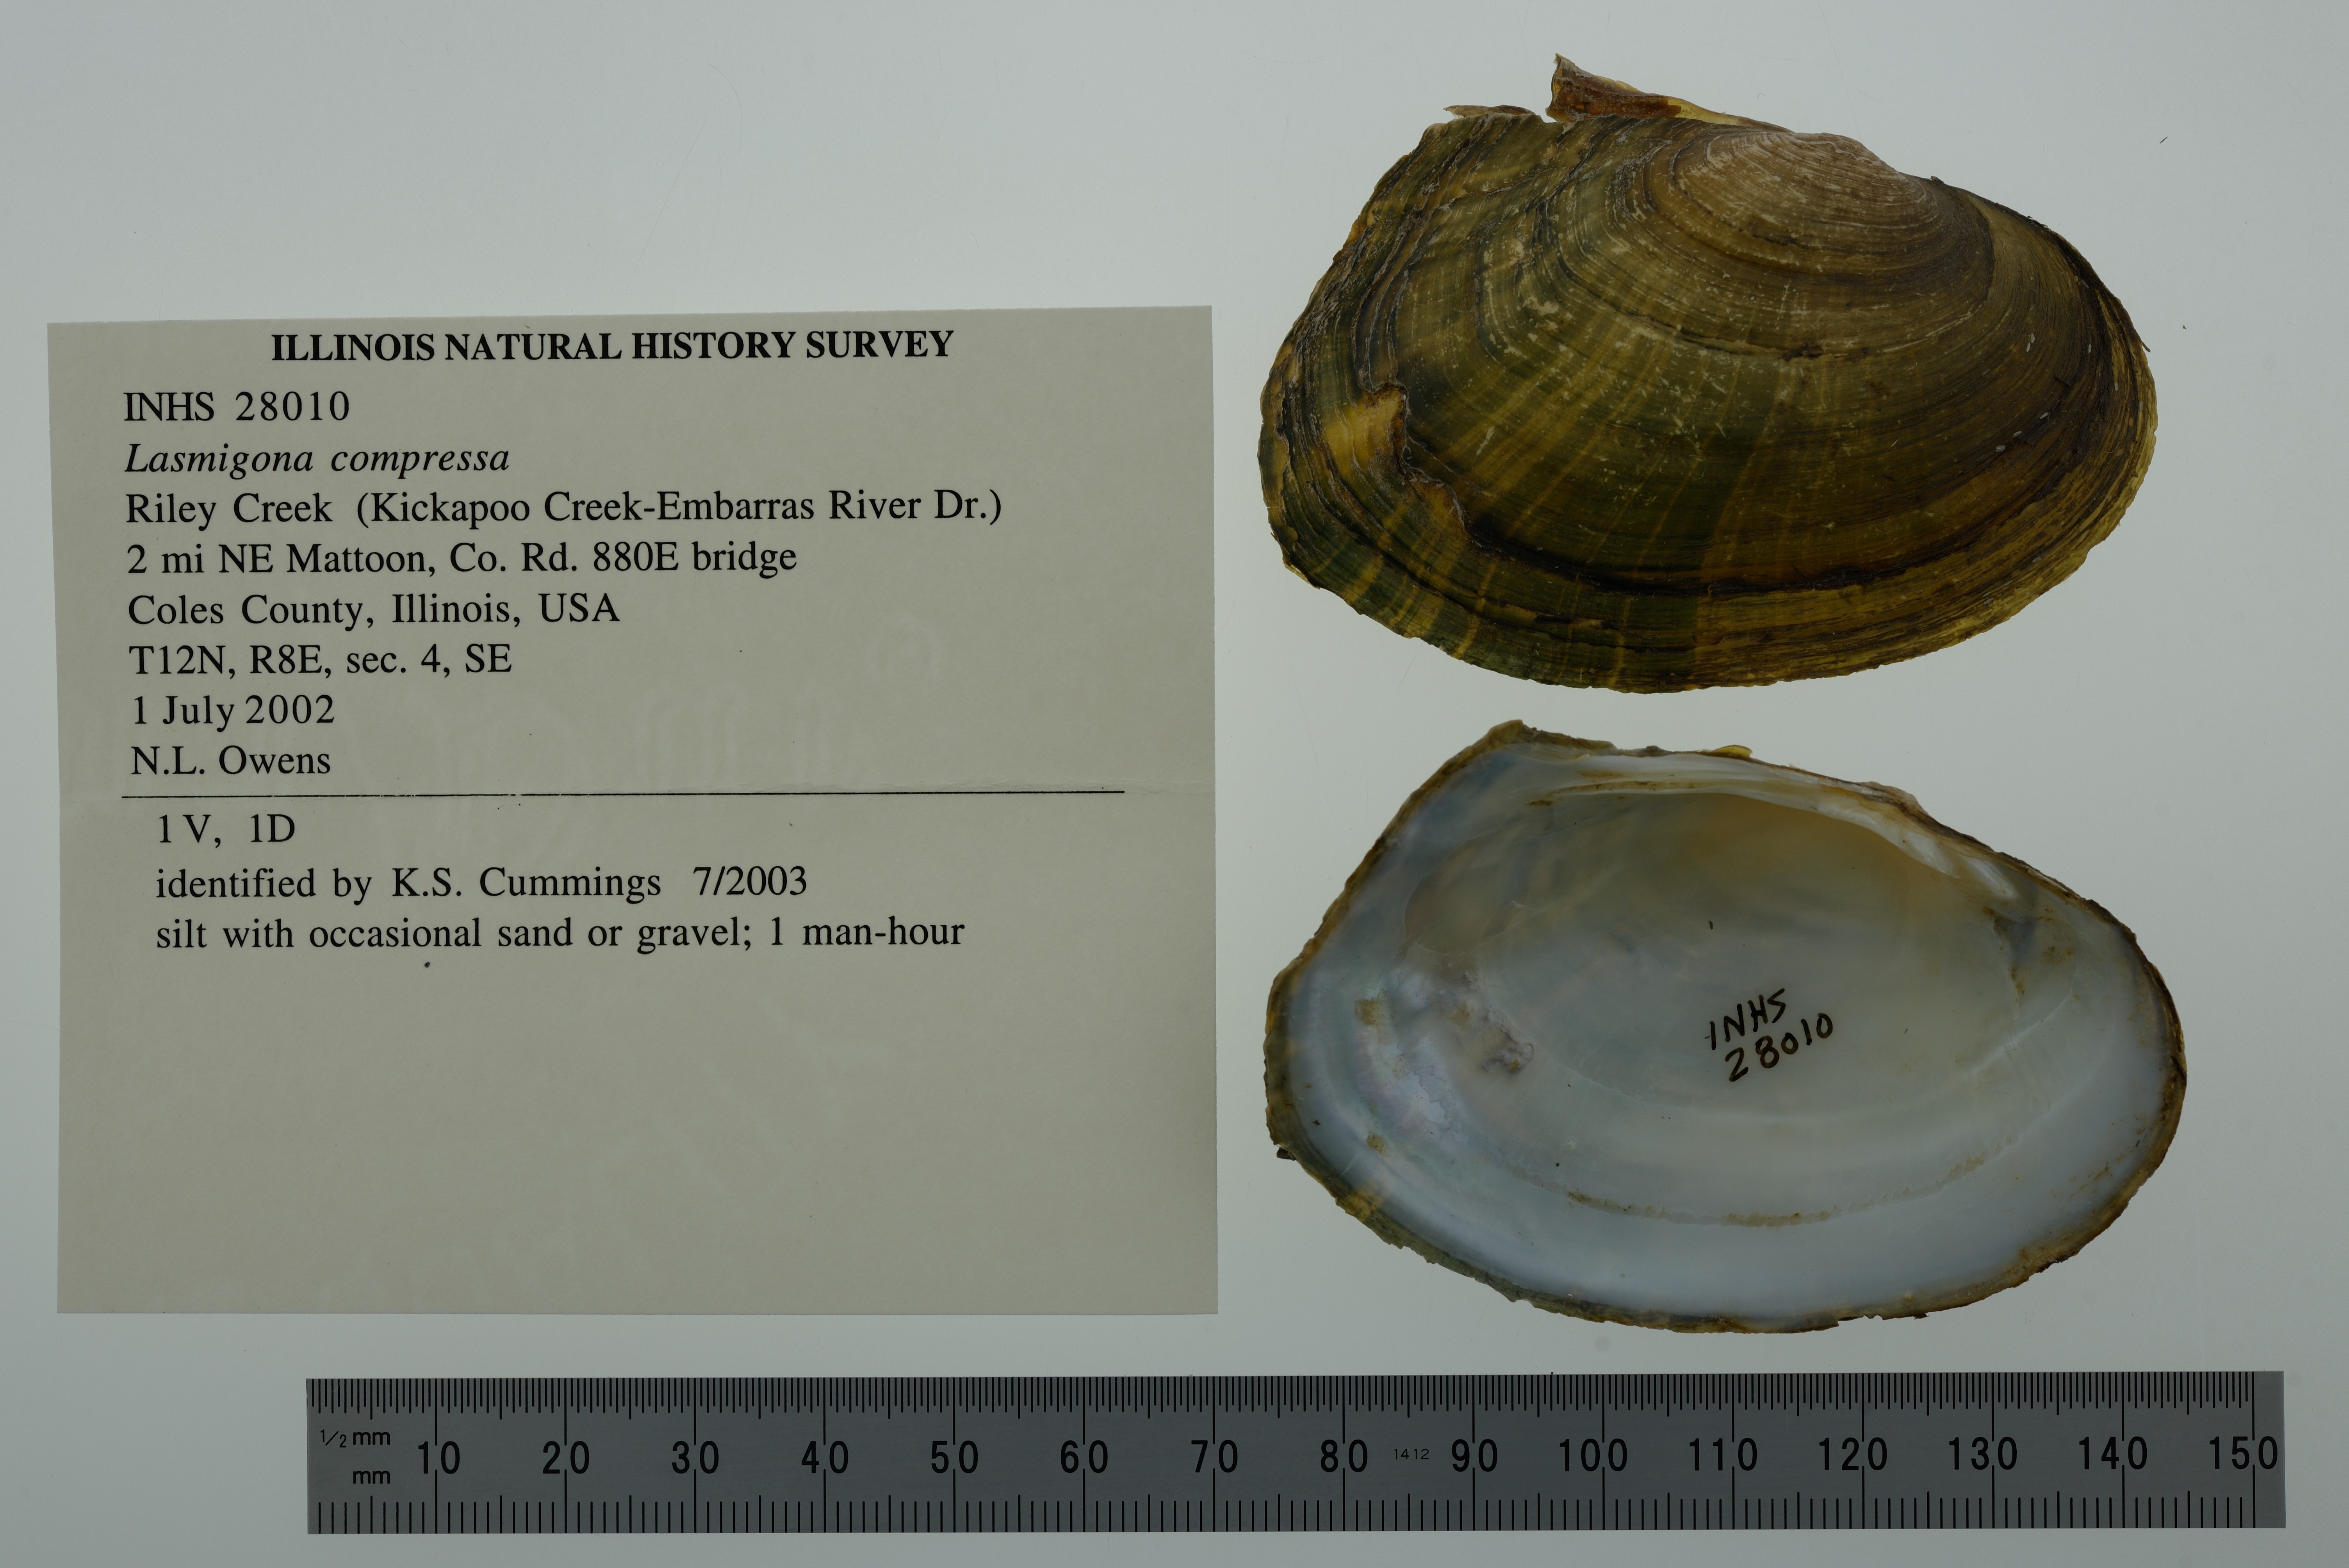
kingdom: Animalia
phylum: Mollusca
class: Bivalvia
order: Unionida
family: Unionidae
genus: Lasmigona
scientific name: Lasmigona compressa
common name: Creek heelsplitter
